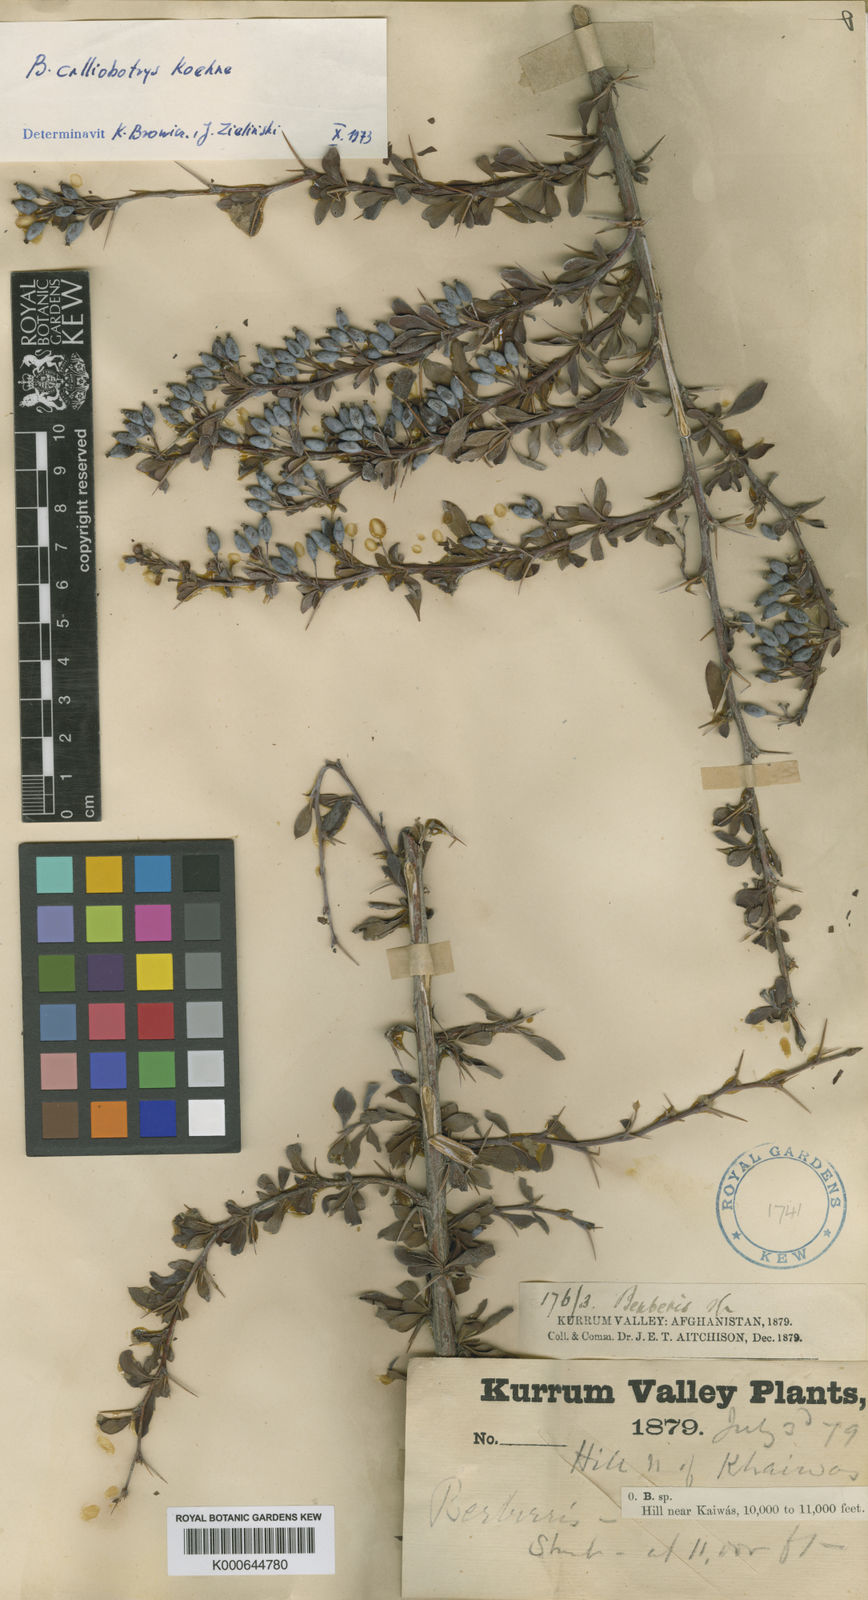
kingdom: Plantae
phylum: Tracheophyta
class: Magnoliopsida
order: Ranunculales
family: Berberidaceae
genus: Berberis
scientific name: Berberis calliobotrys
